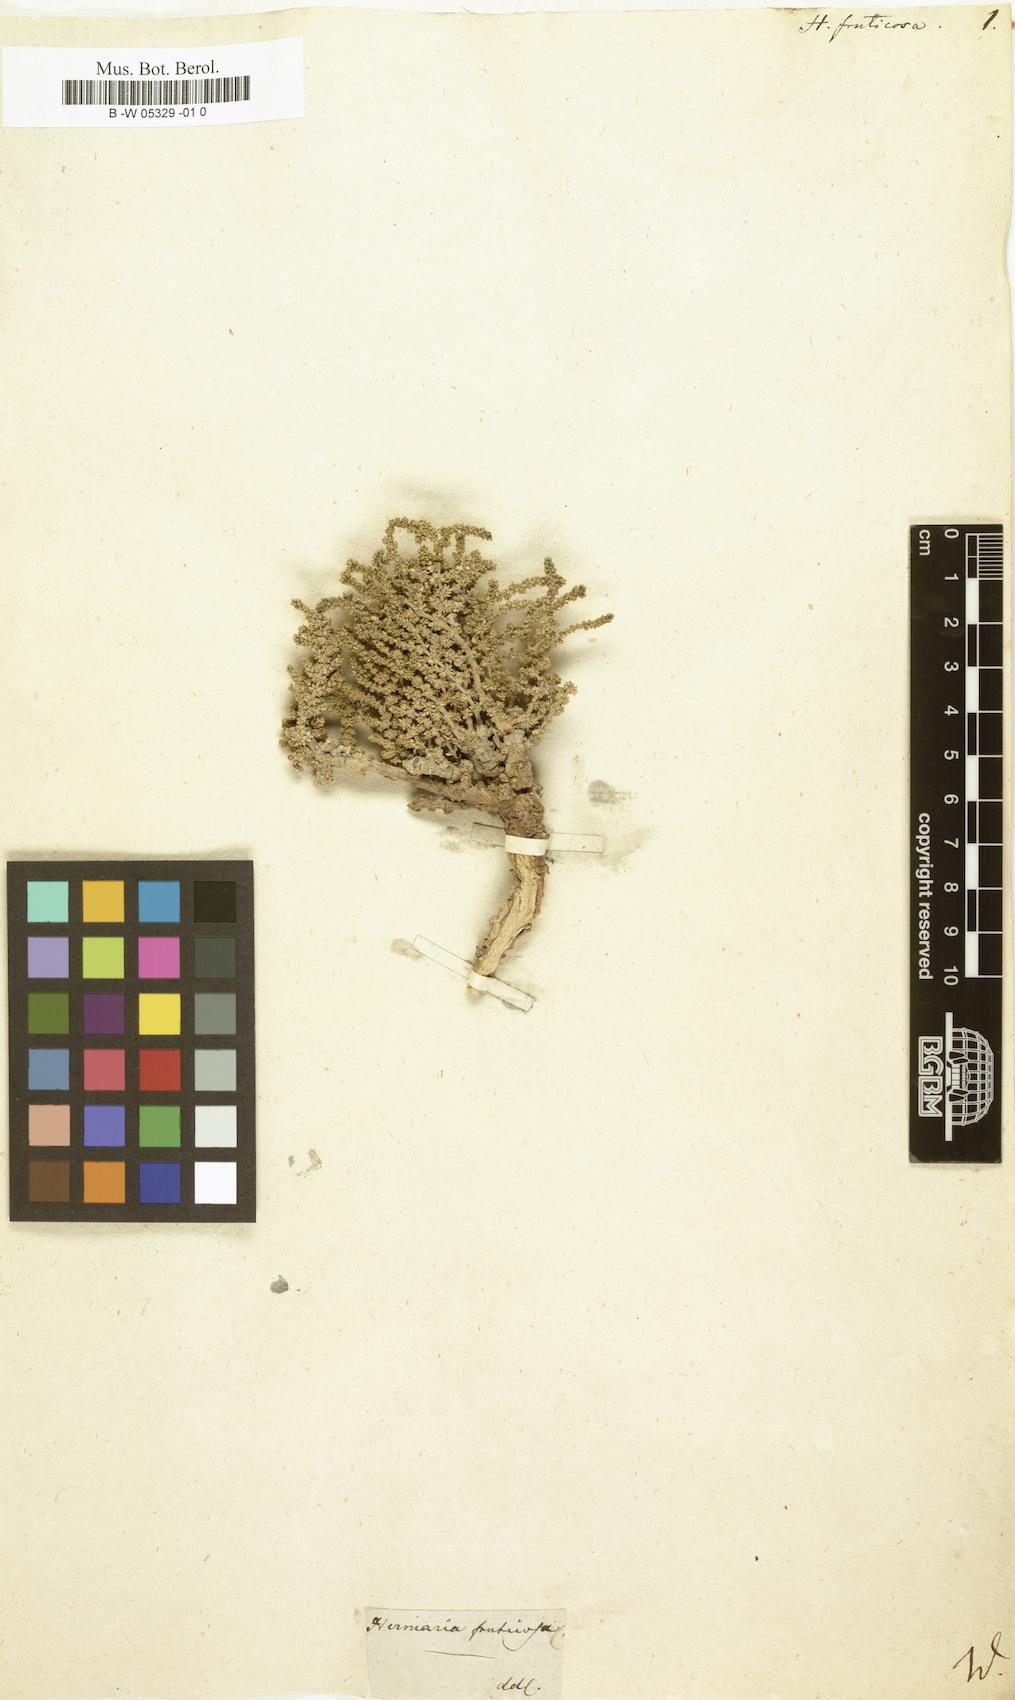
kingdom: Plantae
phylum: Tracheophyta
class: Magnoliopsida
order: Caryophyllales
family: Caryophyllaceae
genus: Herniaria
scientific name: Herniaria fruticosa
